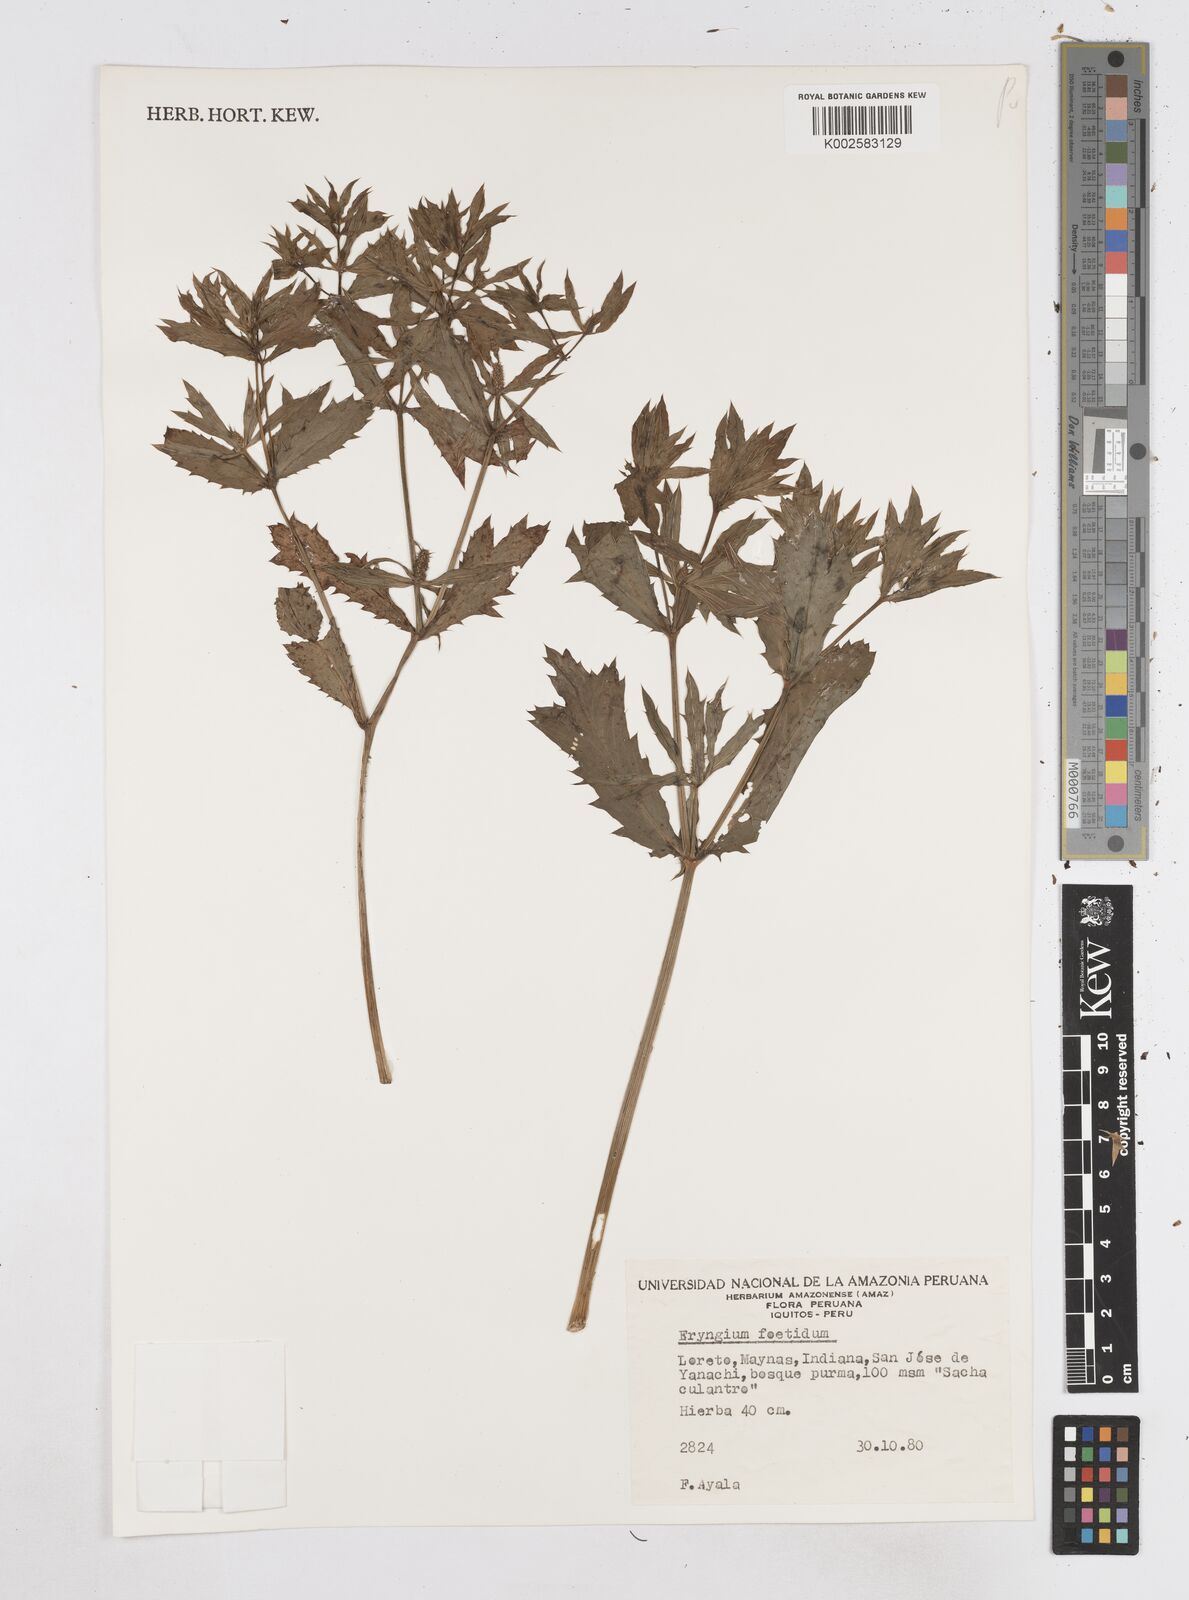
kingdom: Plantae
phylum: Tracheophyta
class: Magnoliopsida
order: Apiales
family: Apiaceae
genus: Eryngium
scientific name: Eryngium foetidum
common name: Fitweed
